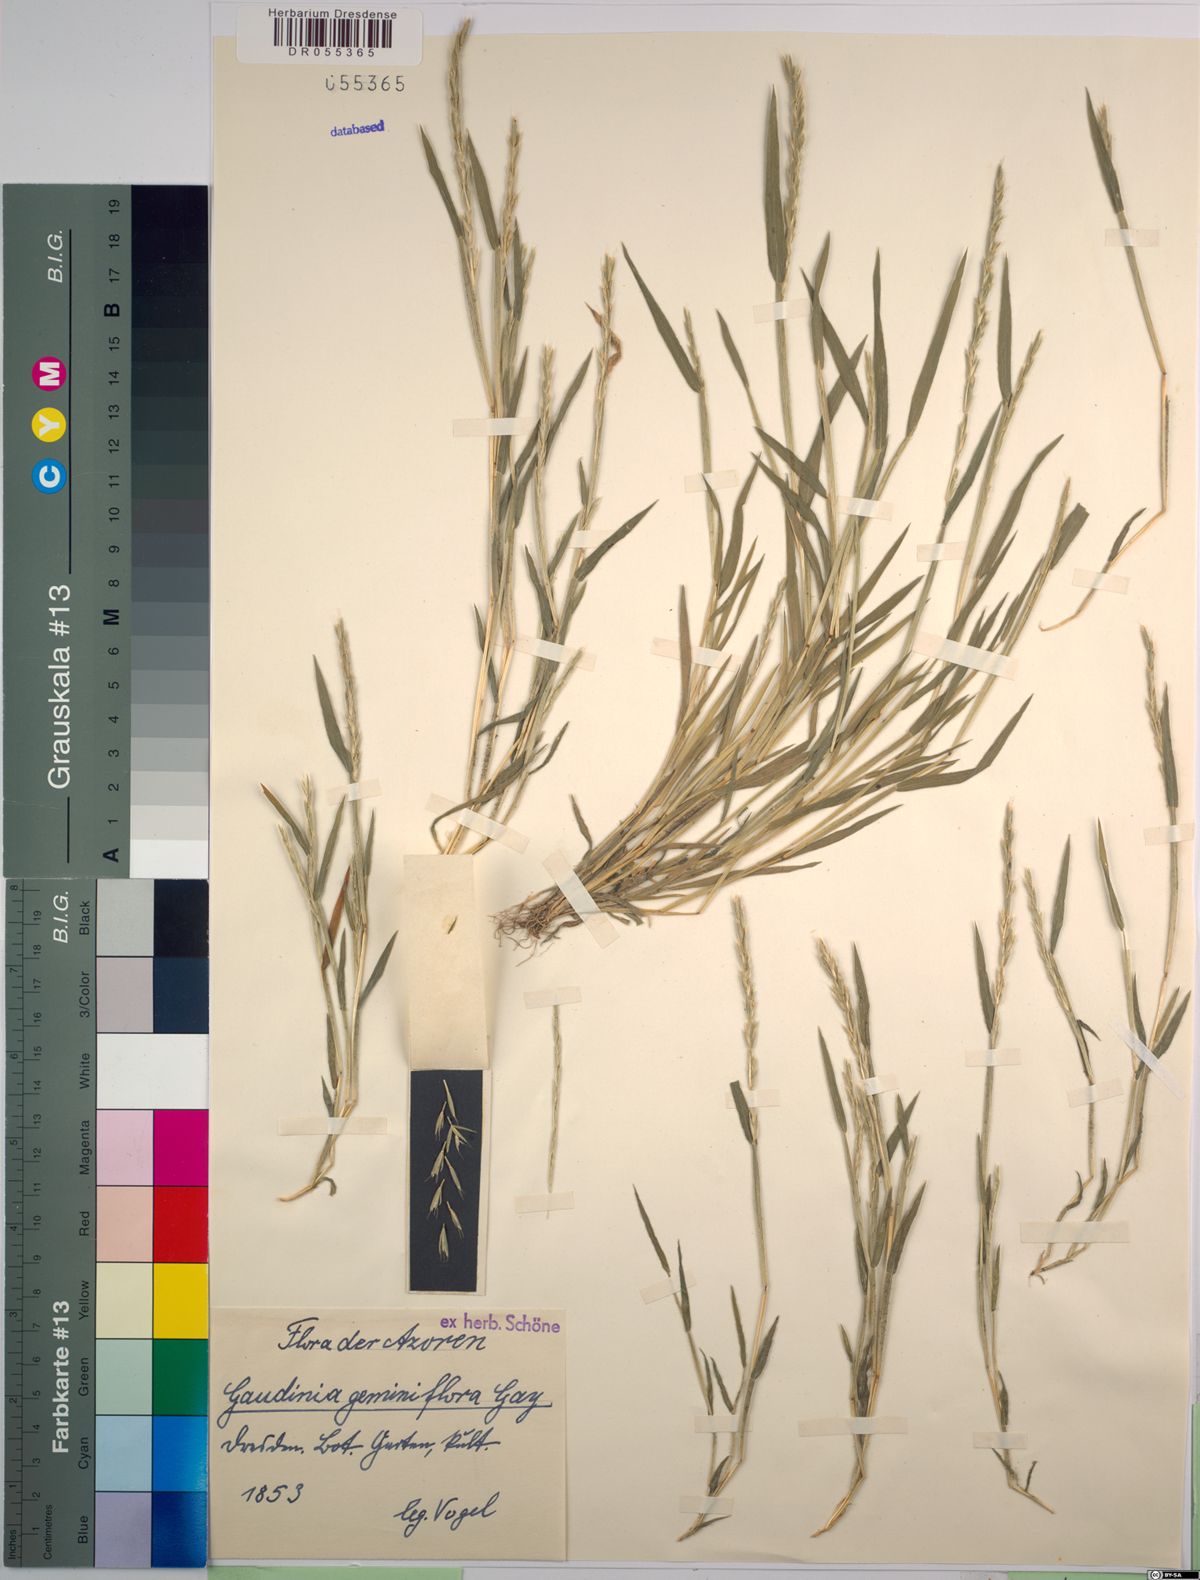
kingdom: Plantae
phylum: Tracheophyta
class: Liliopsida
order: Poales
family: Poaceae
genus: Gaudinia
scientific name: Gaudinia coarctata
